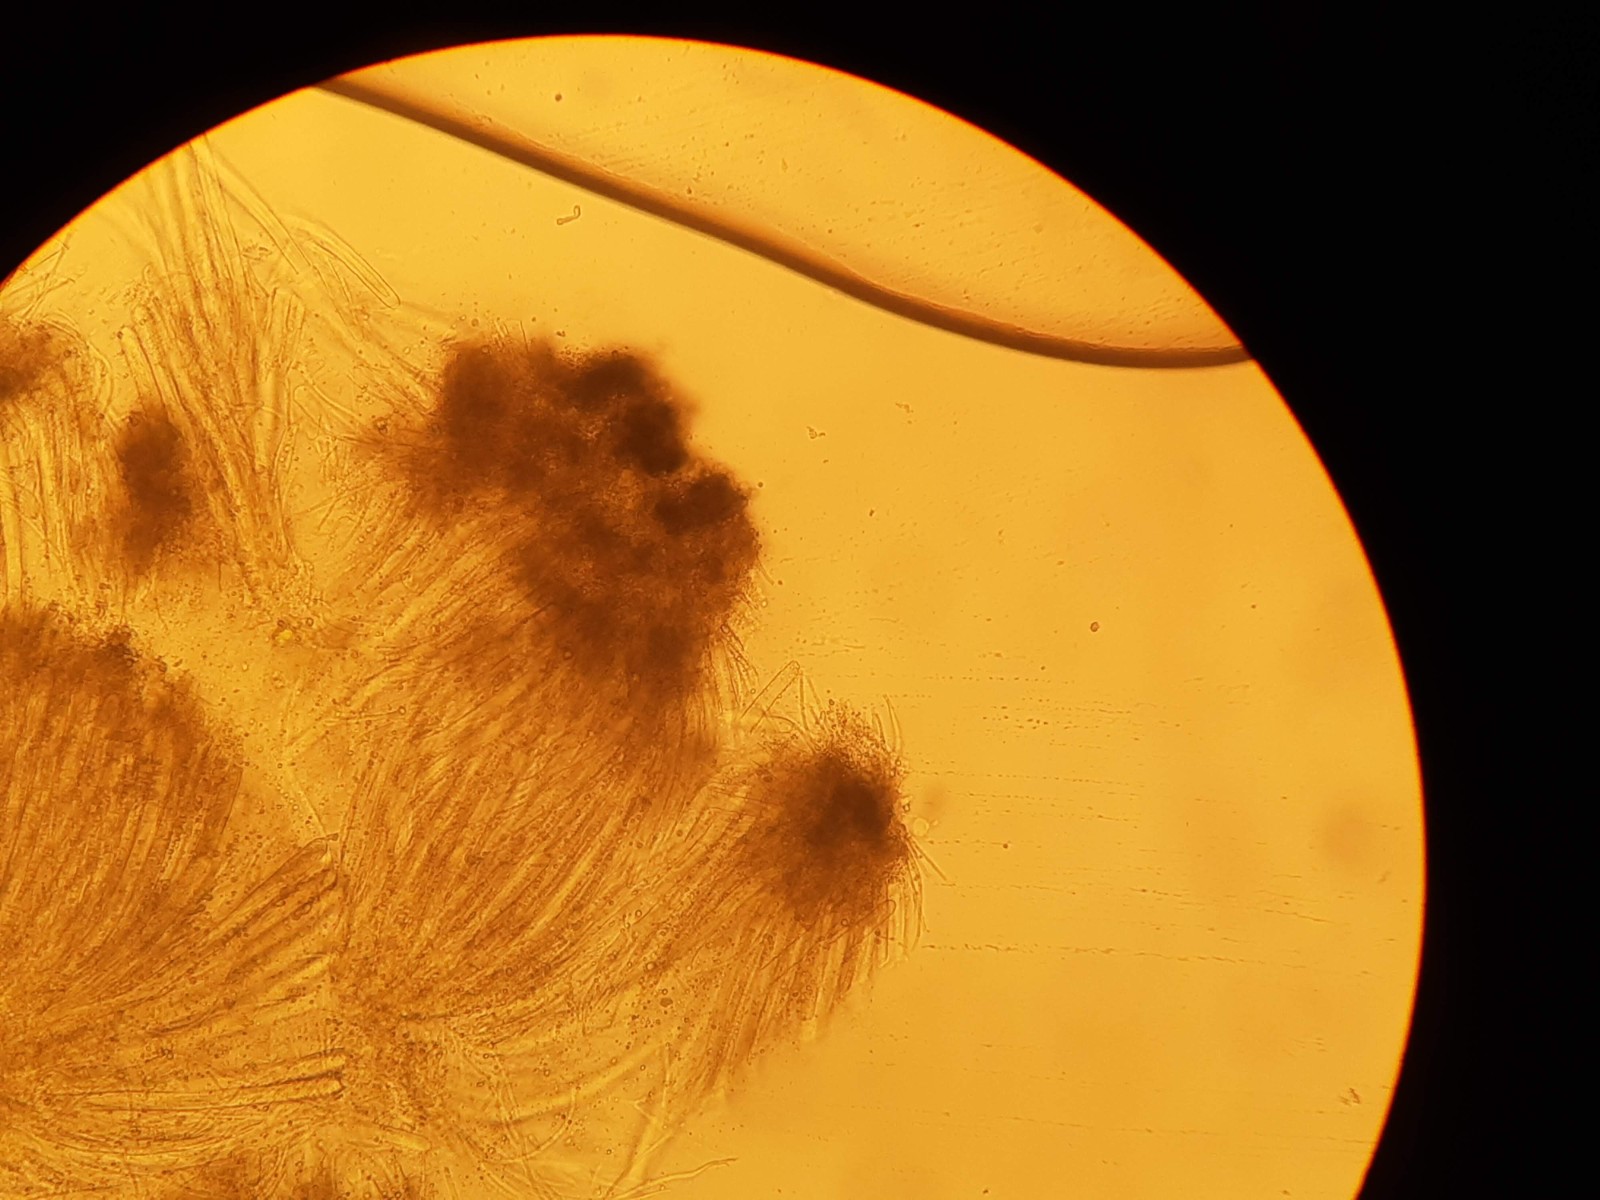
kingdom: Fungi
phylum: Ascomycota
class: Lecanoromycetes
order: Ostropales
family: Stictidaceae
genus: Schizoxylon
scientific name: Schizoxylon
